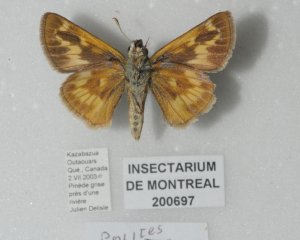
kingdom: Animalia
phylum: Arthropoda
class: Insecta
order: Lepidoptera
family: Hesperiidae
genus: Polites
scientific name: Polites
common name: Long Dash Skipper
